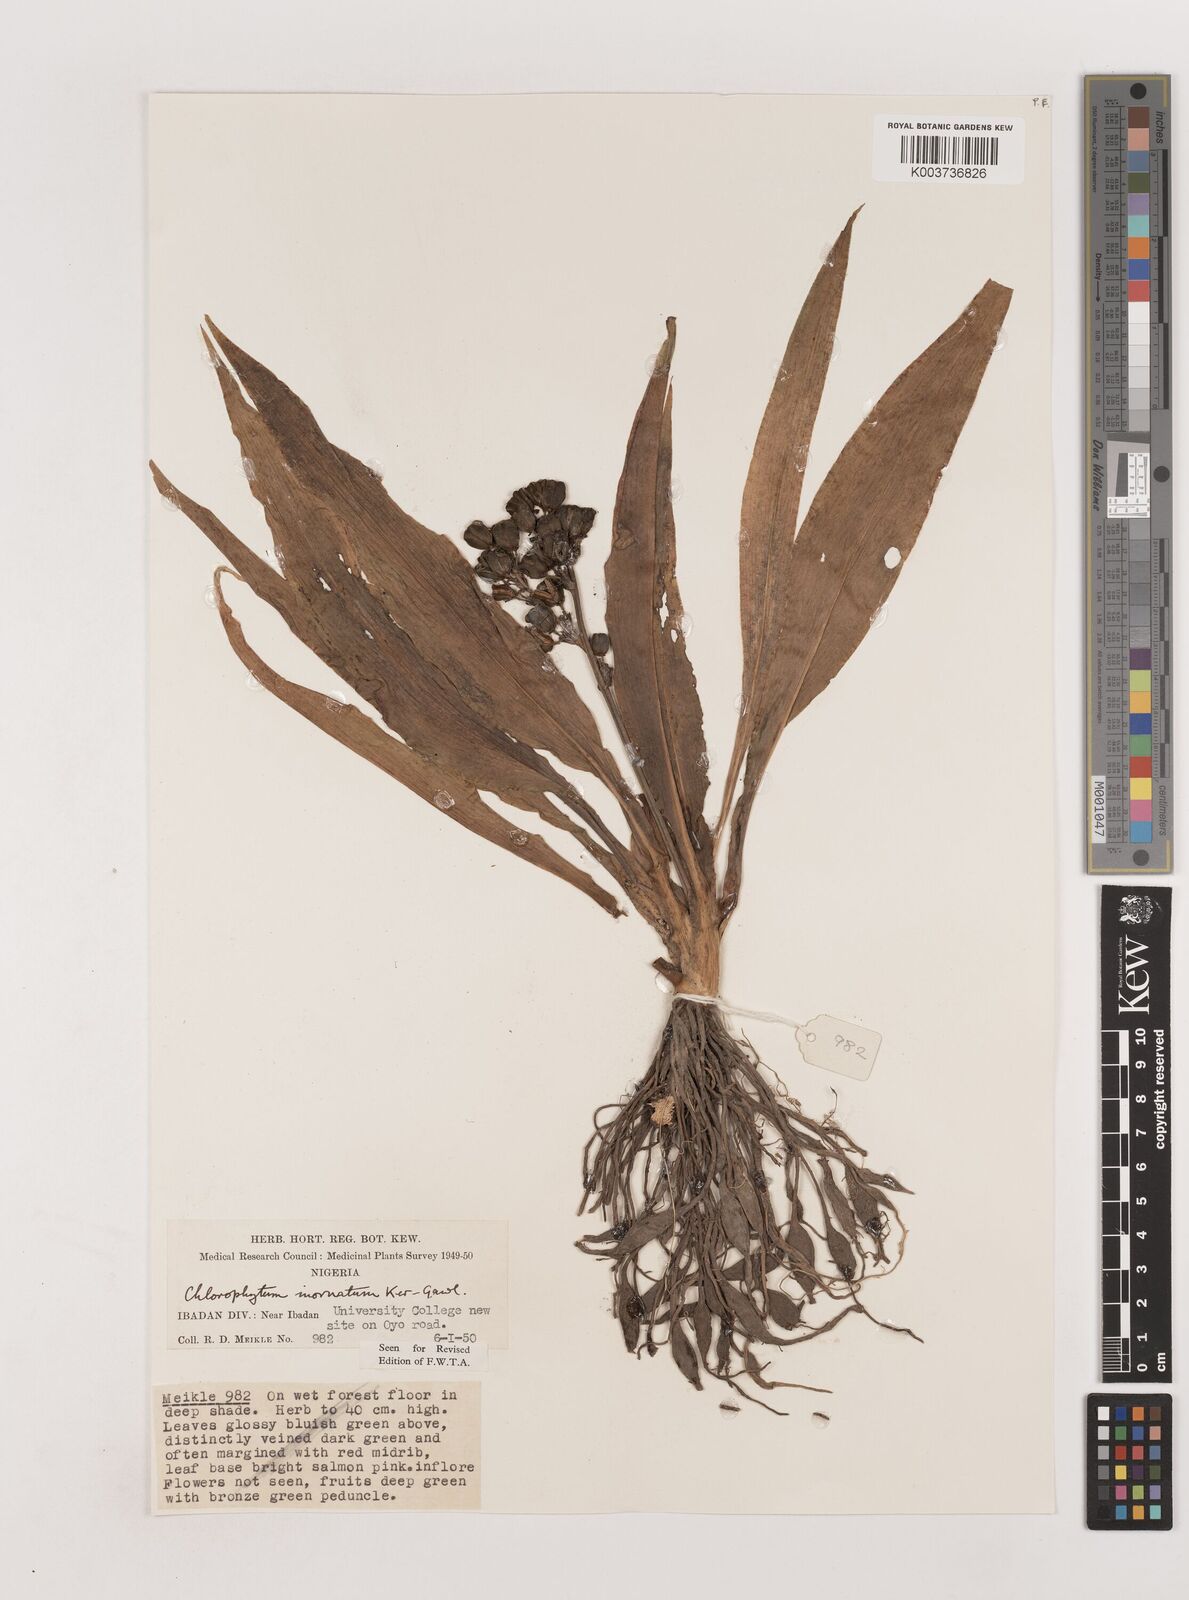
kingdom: Plantae
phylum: Tracheophyta
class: Liliopsida
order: Asparagales
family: Asparagaceae
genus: Chlorophytum
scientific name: Chlorophytum inornatum
